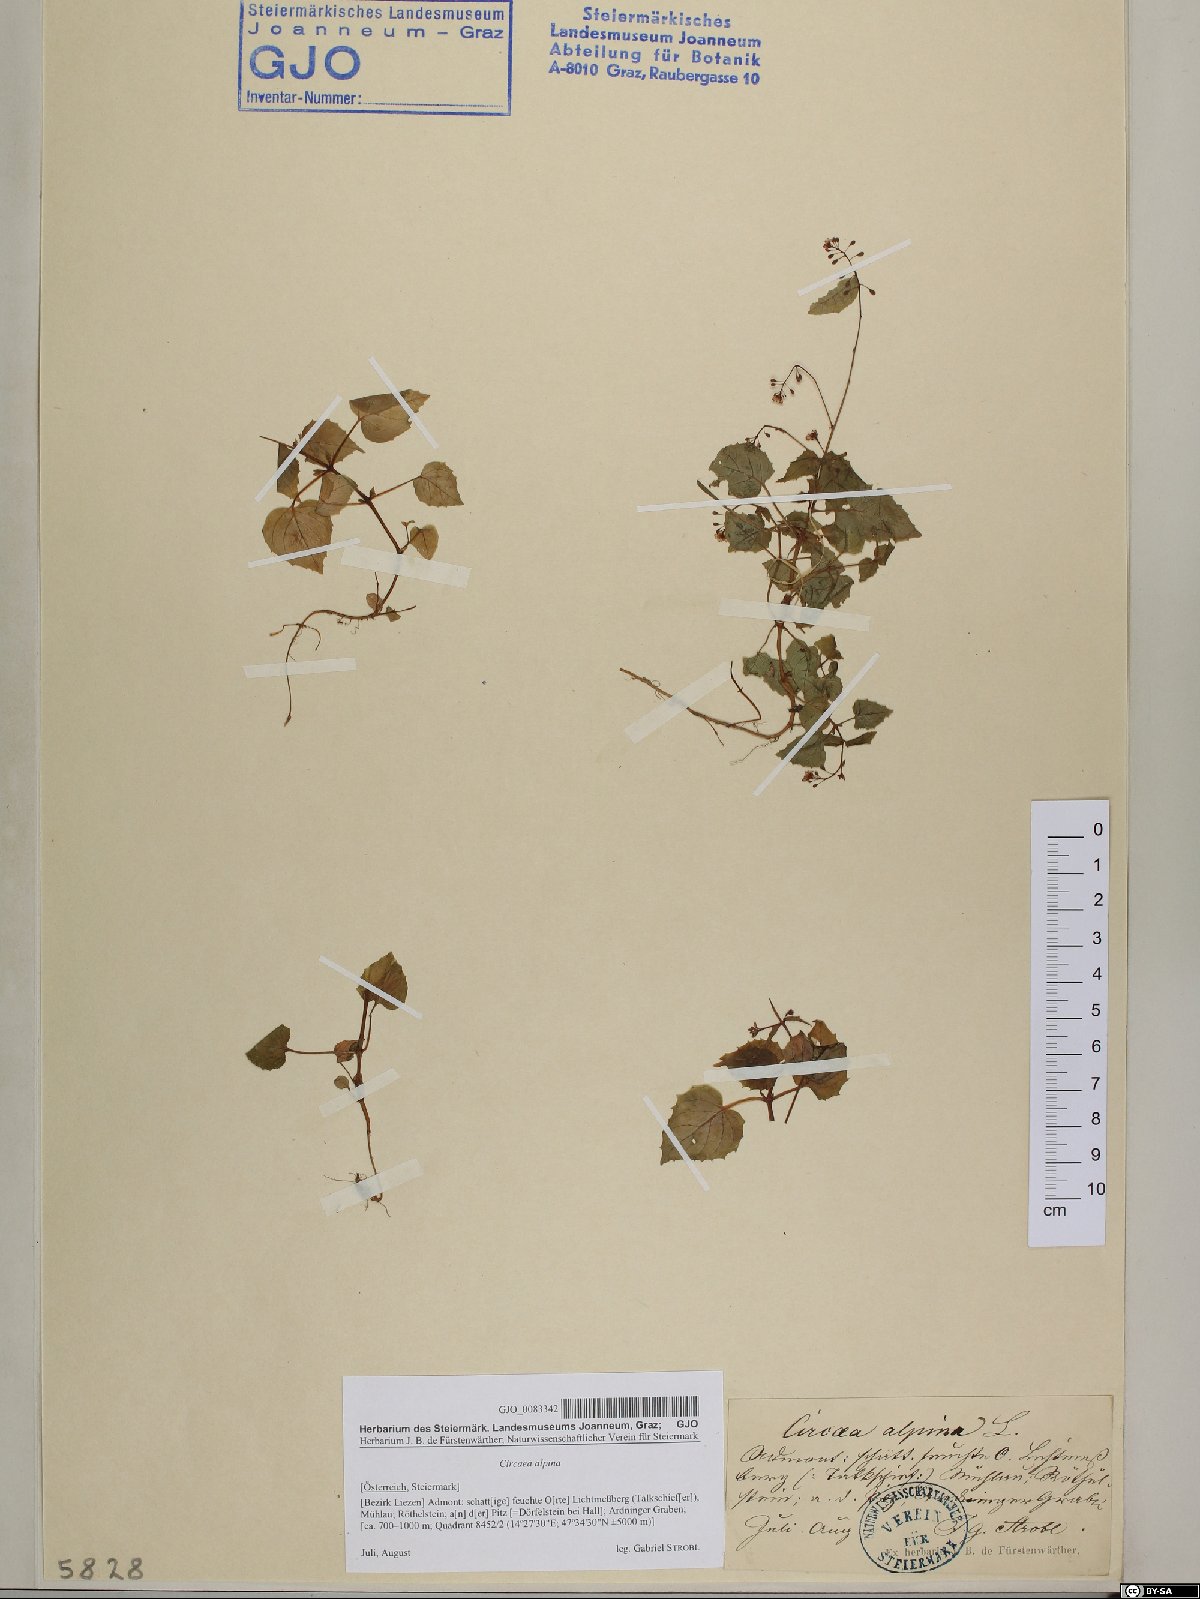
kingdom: Plantae
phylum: Tracheophyta
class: Magnoliopsida
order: Myrtales
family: Onagraceae
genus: Circaea
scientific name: Circaea alpina
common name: Alpine enchanter's-nightshade
